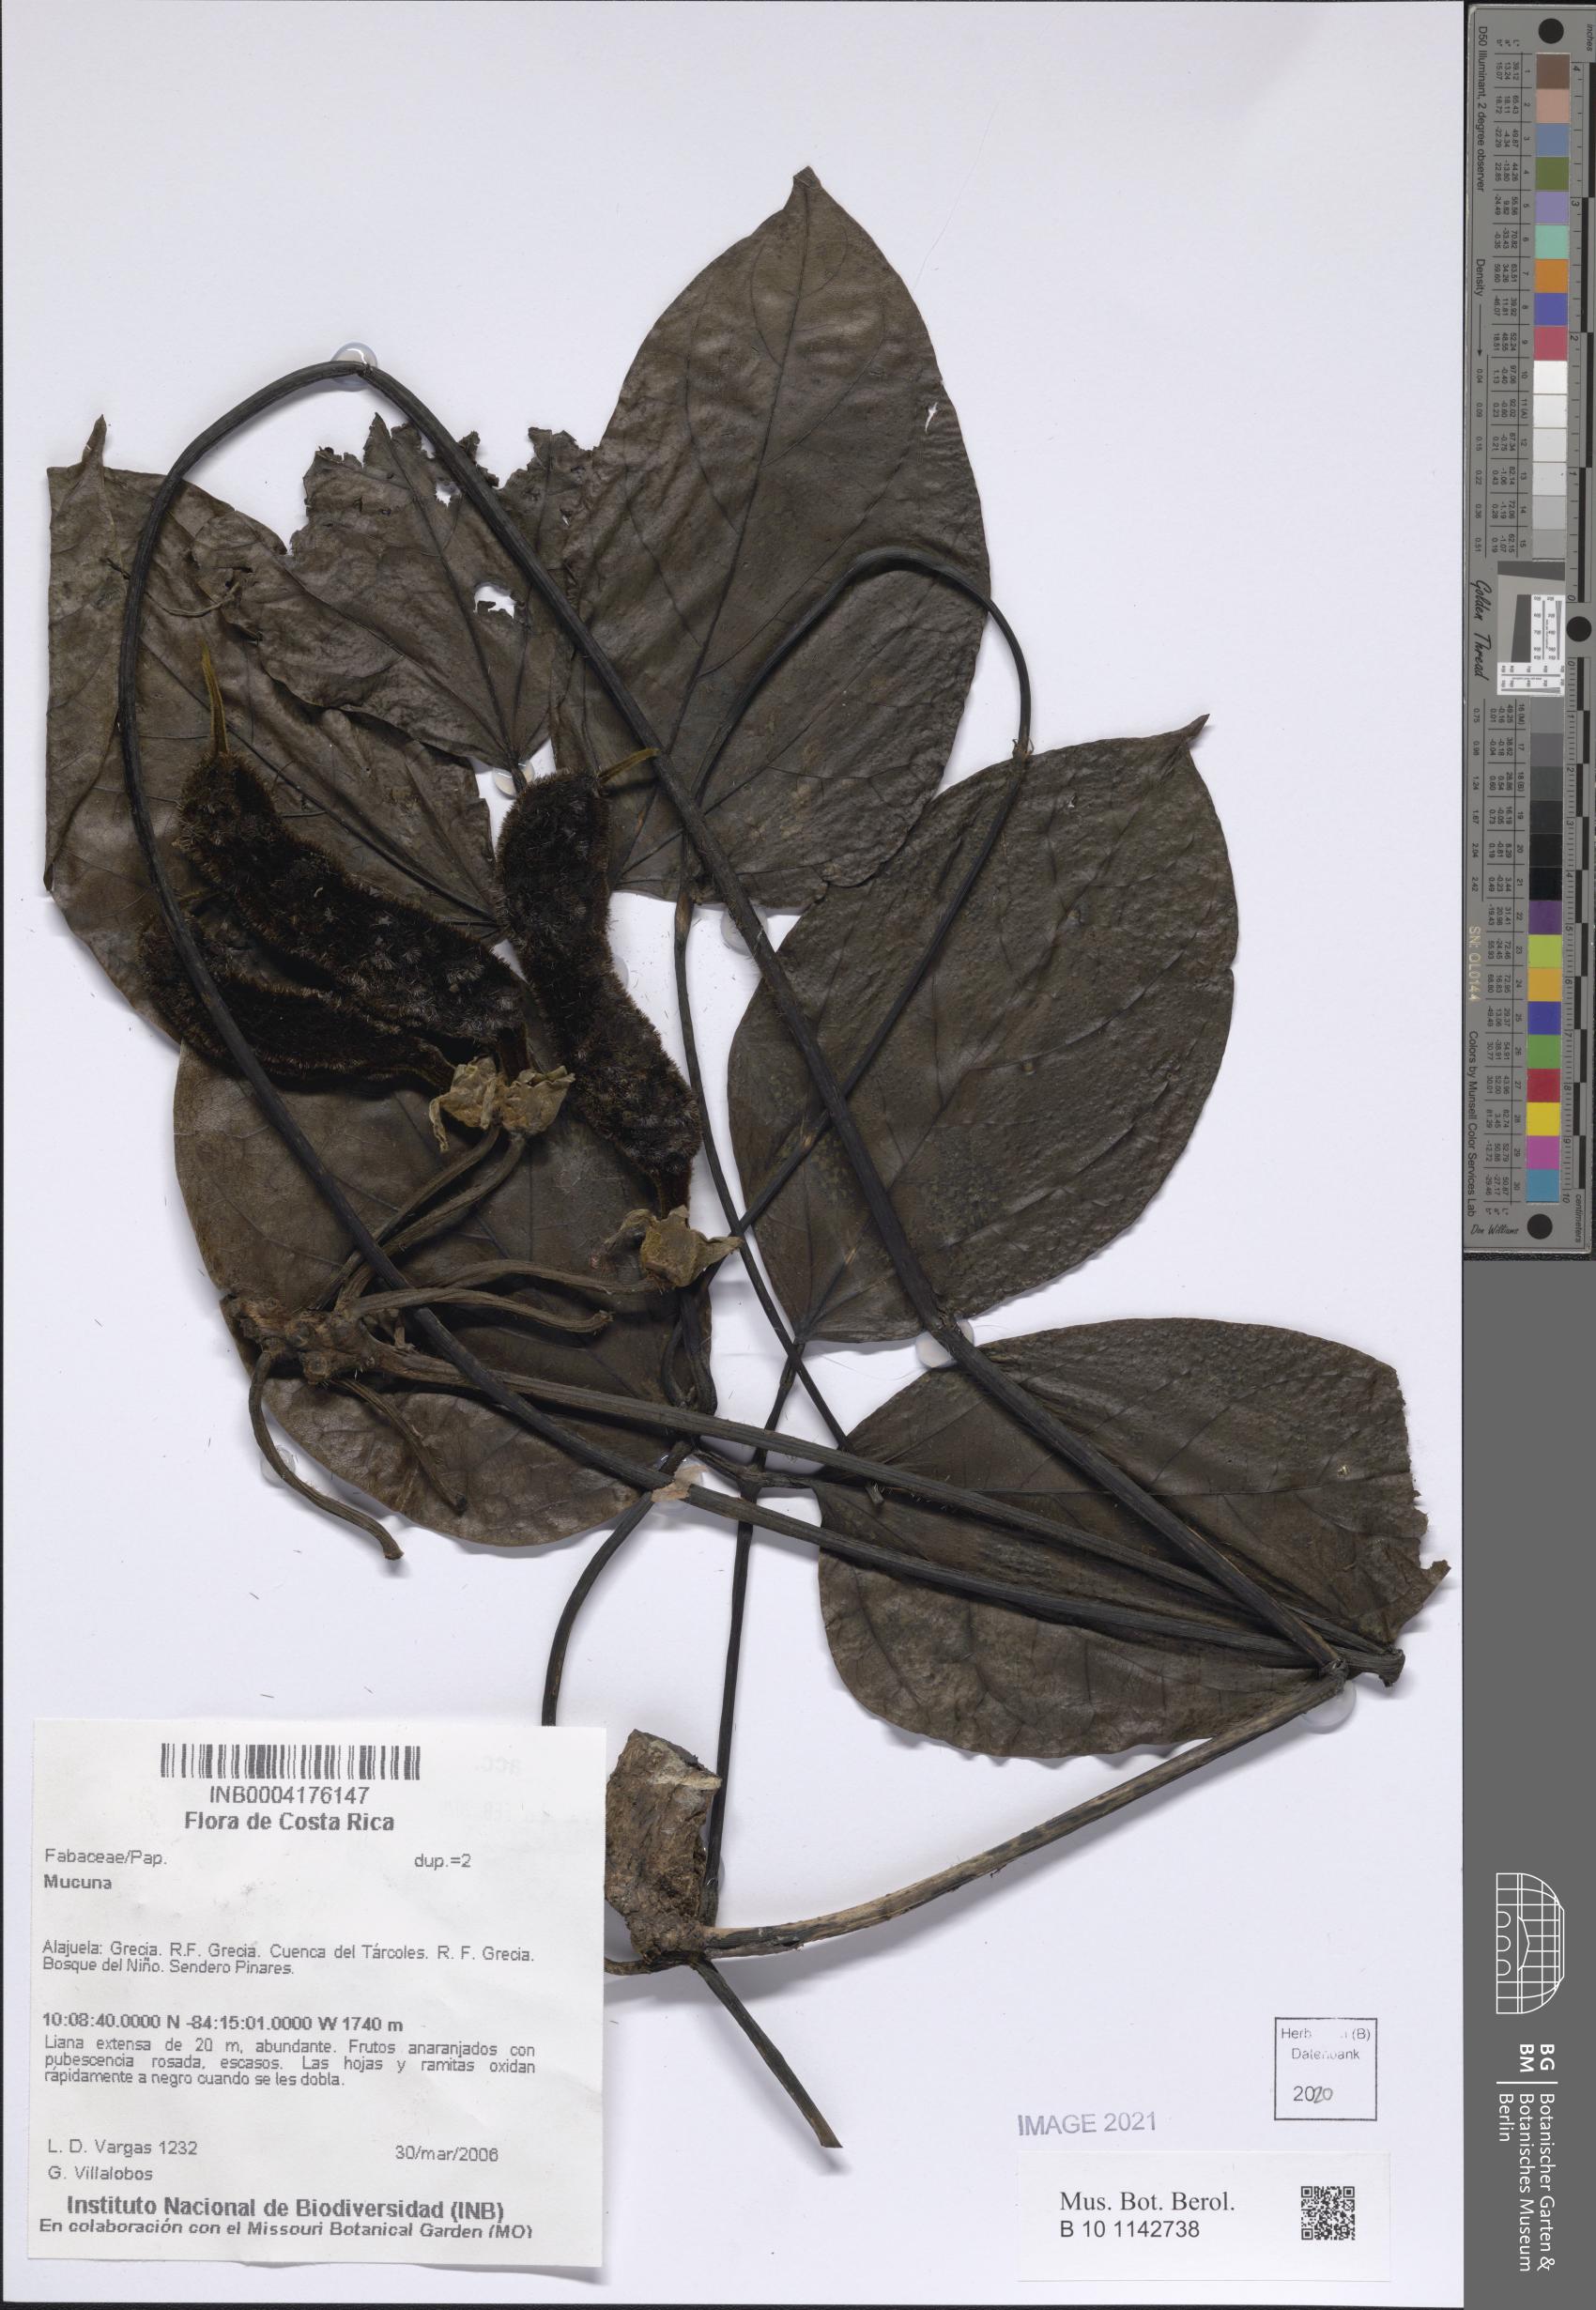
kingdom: Plantae
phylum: Tracheophyta
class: Magnoliopsida
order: Fabales
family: Fabaceae
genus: Mucuna
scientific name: Mucuna
